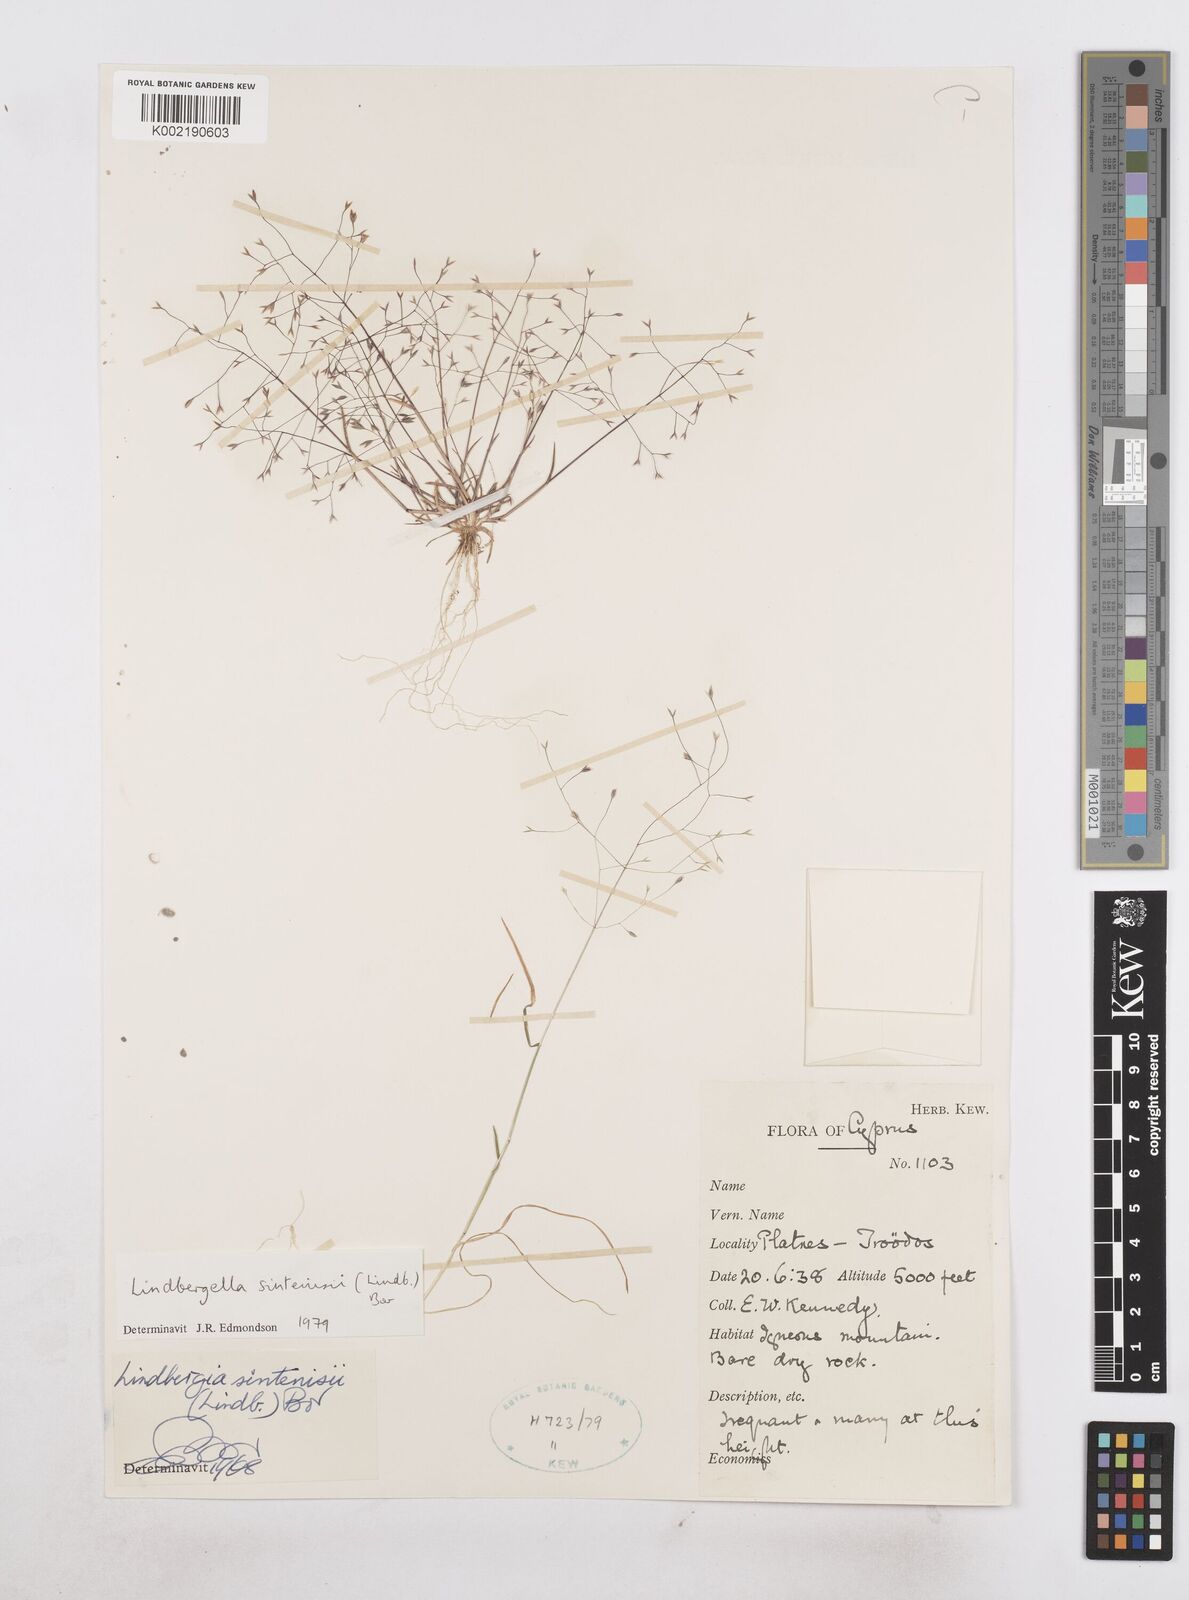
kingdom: Plantae
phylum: Tracheophyta
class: Liliopsida
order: Poales
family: Poaceae
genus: Poa
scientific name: Poa sintenisii
